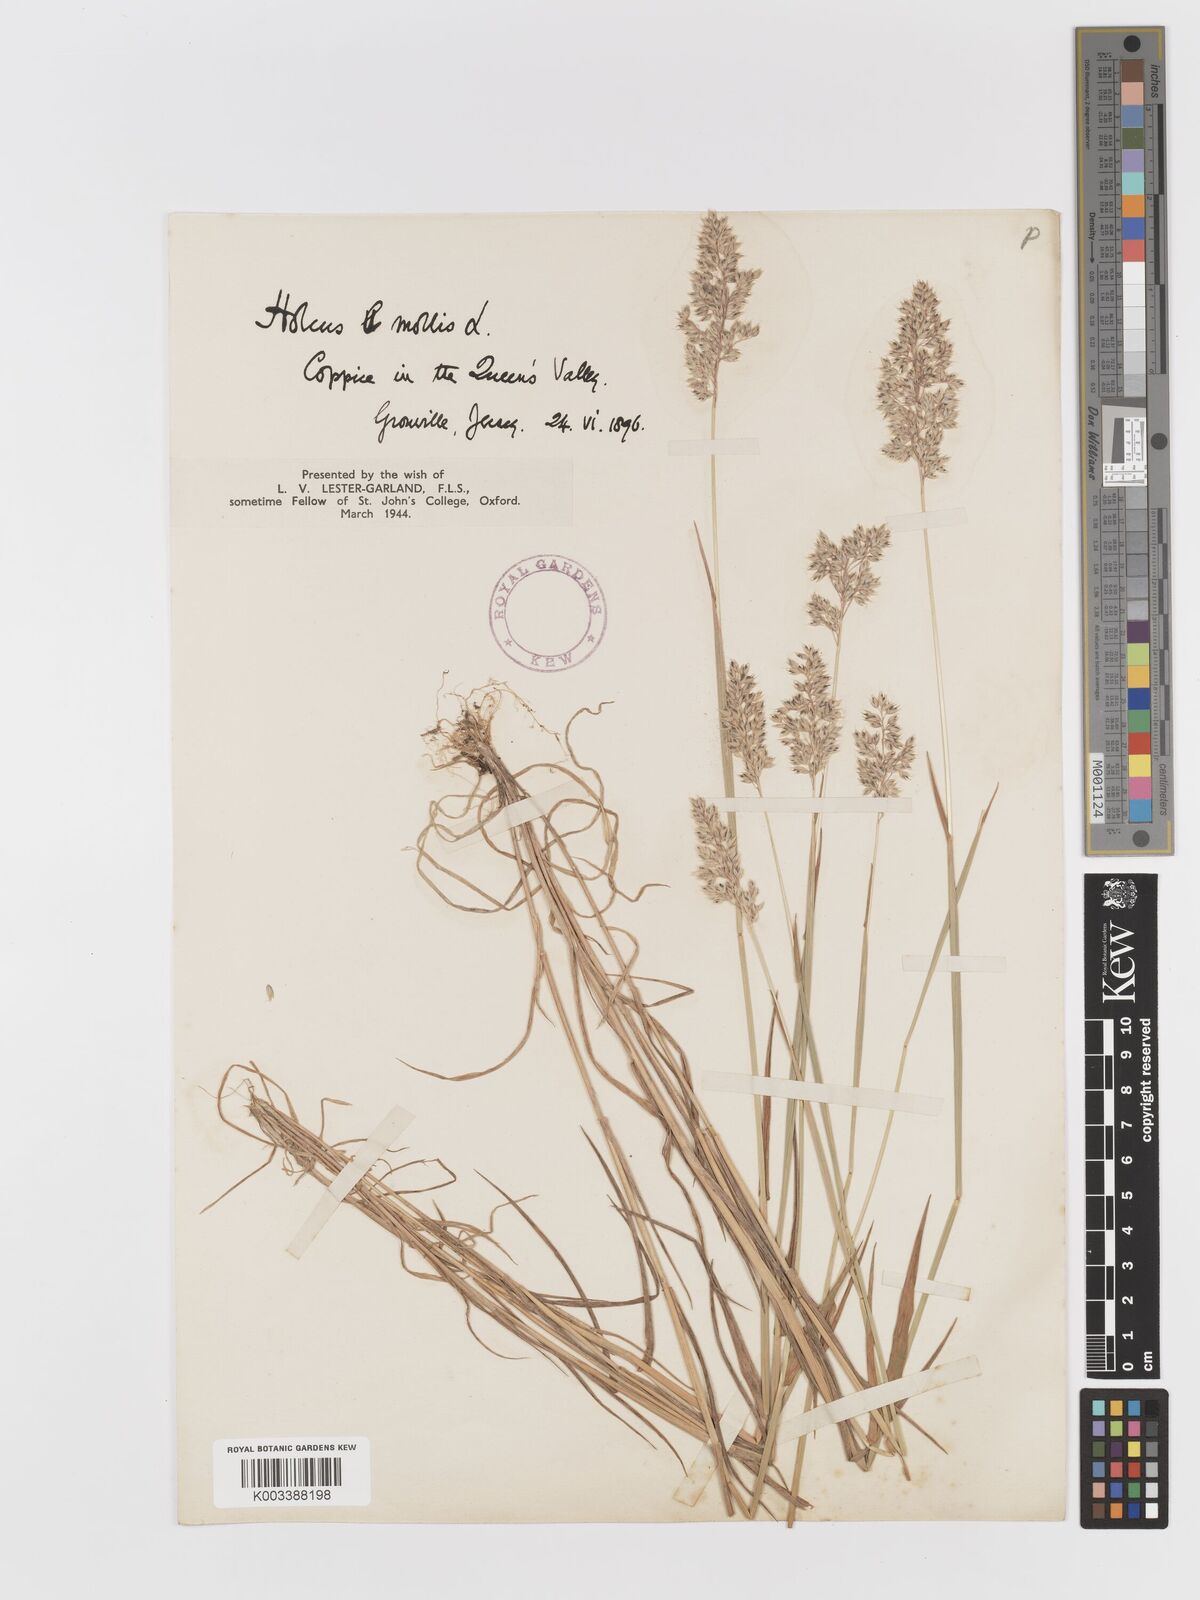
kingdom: Plantae
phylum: Tracheophyta
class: Liliopsida
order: Poales
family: Poaceae
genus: Holcus
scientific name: Holcus mollis
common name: Creeping velvetgrass
